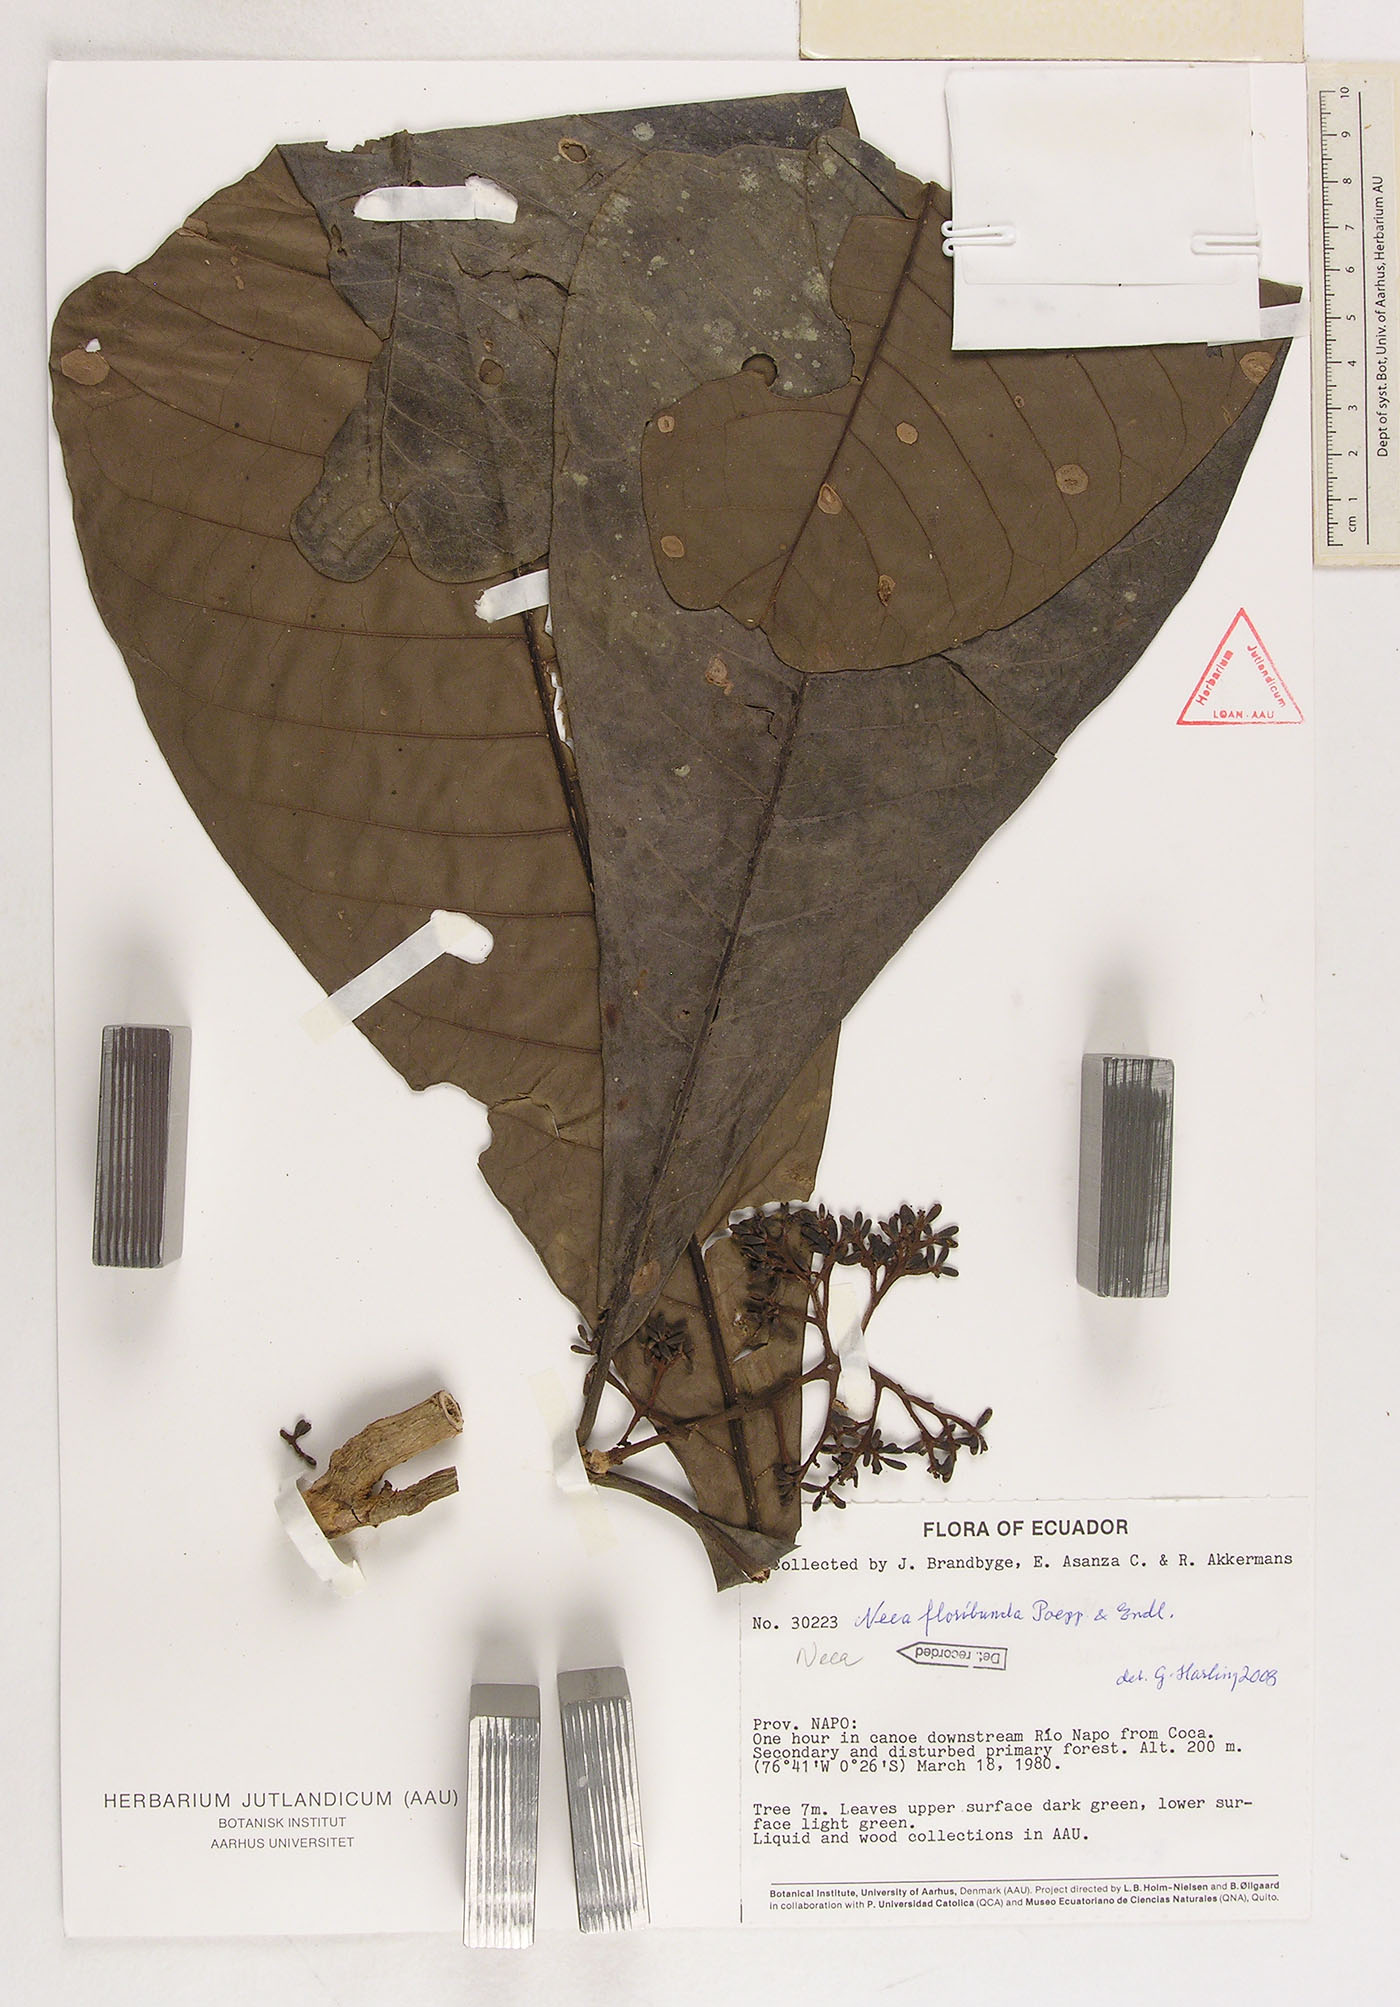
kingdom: Plantae
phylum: Tracheophyta
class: Magnoliopsida
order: Caryophyllales
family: Nyctaginaceae
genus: Neea
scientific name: Neea floribunda
